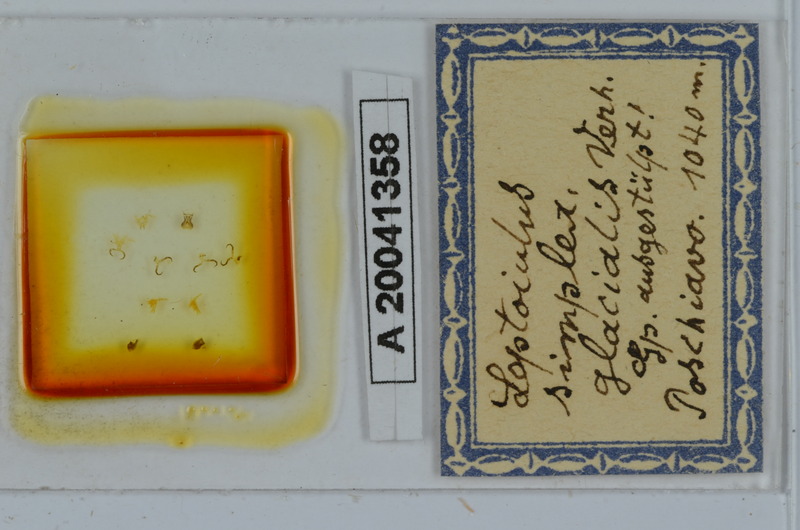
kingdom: Animalia
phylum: Arthropoda
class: Diplopoda
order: Julida
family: Julidae
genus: Leptoiulus
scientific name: Leptoiulus simplex
